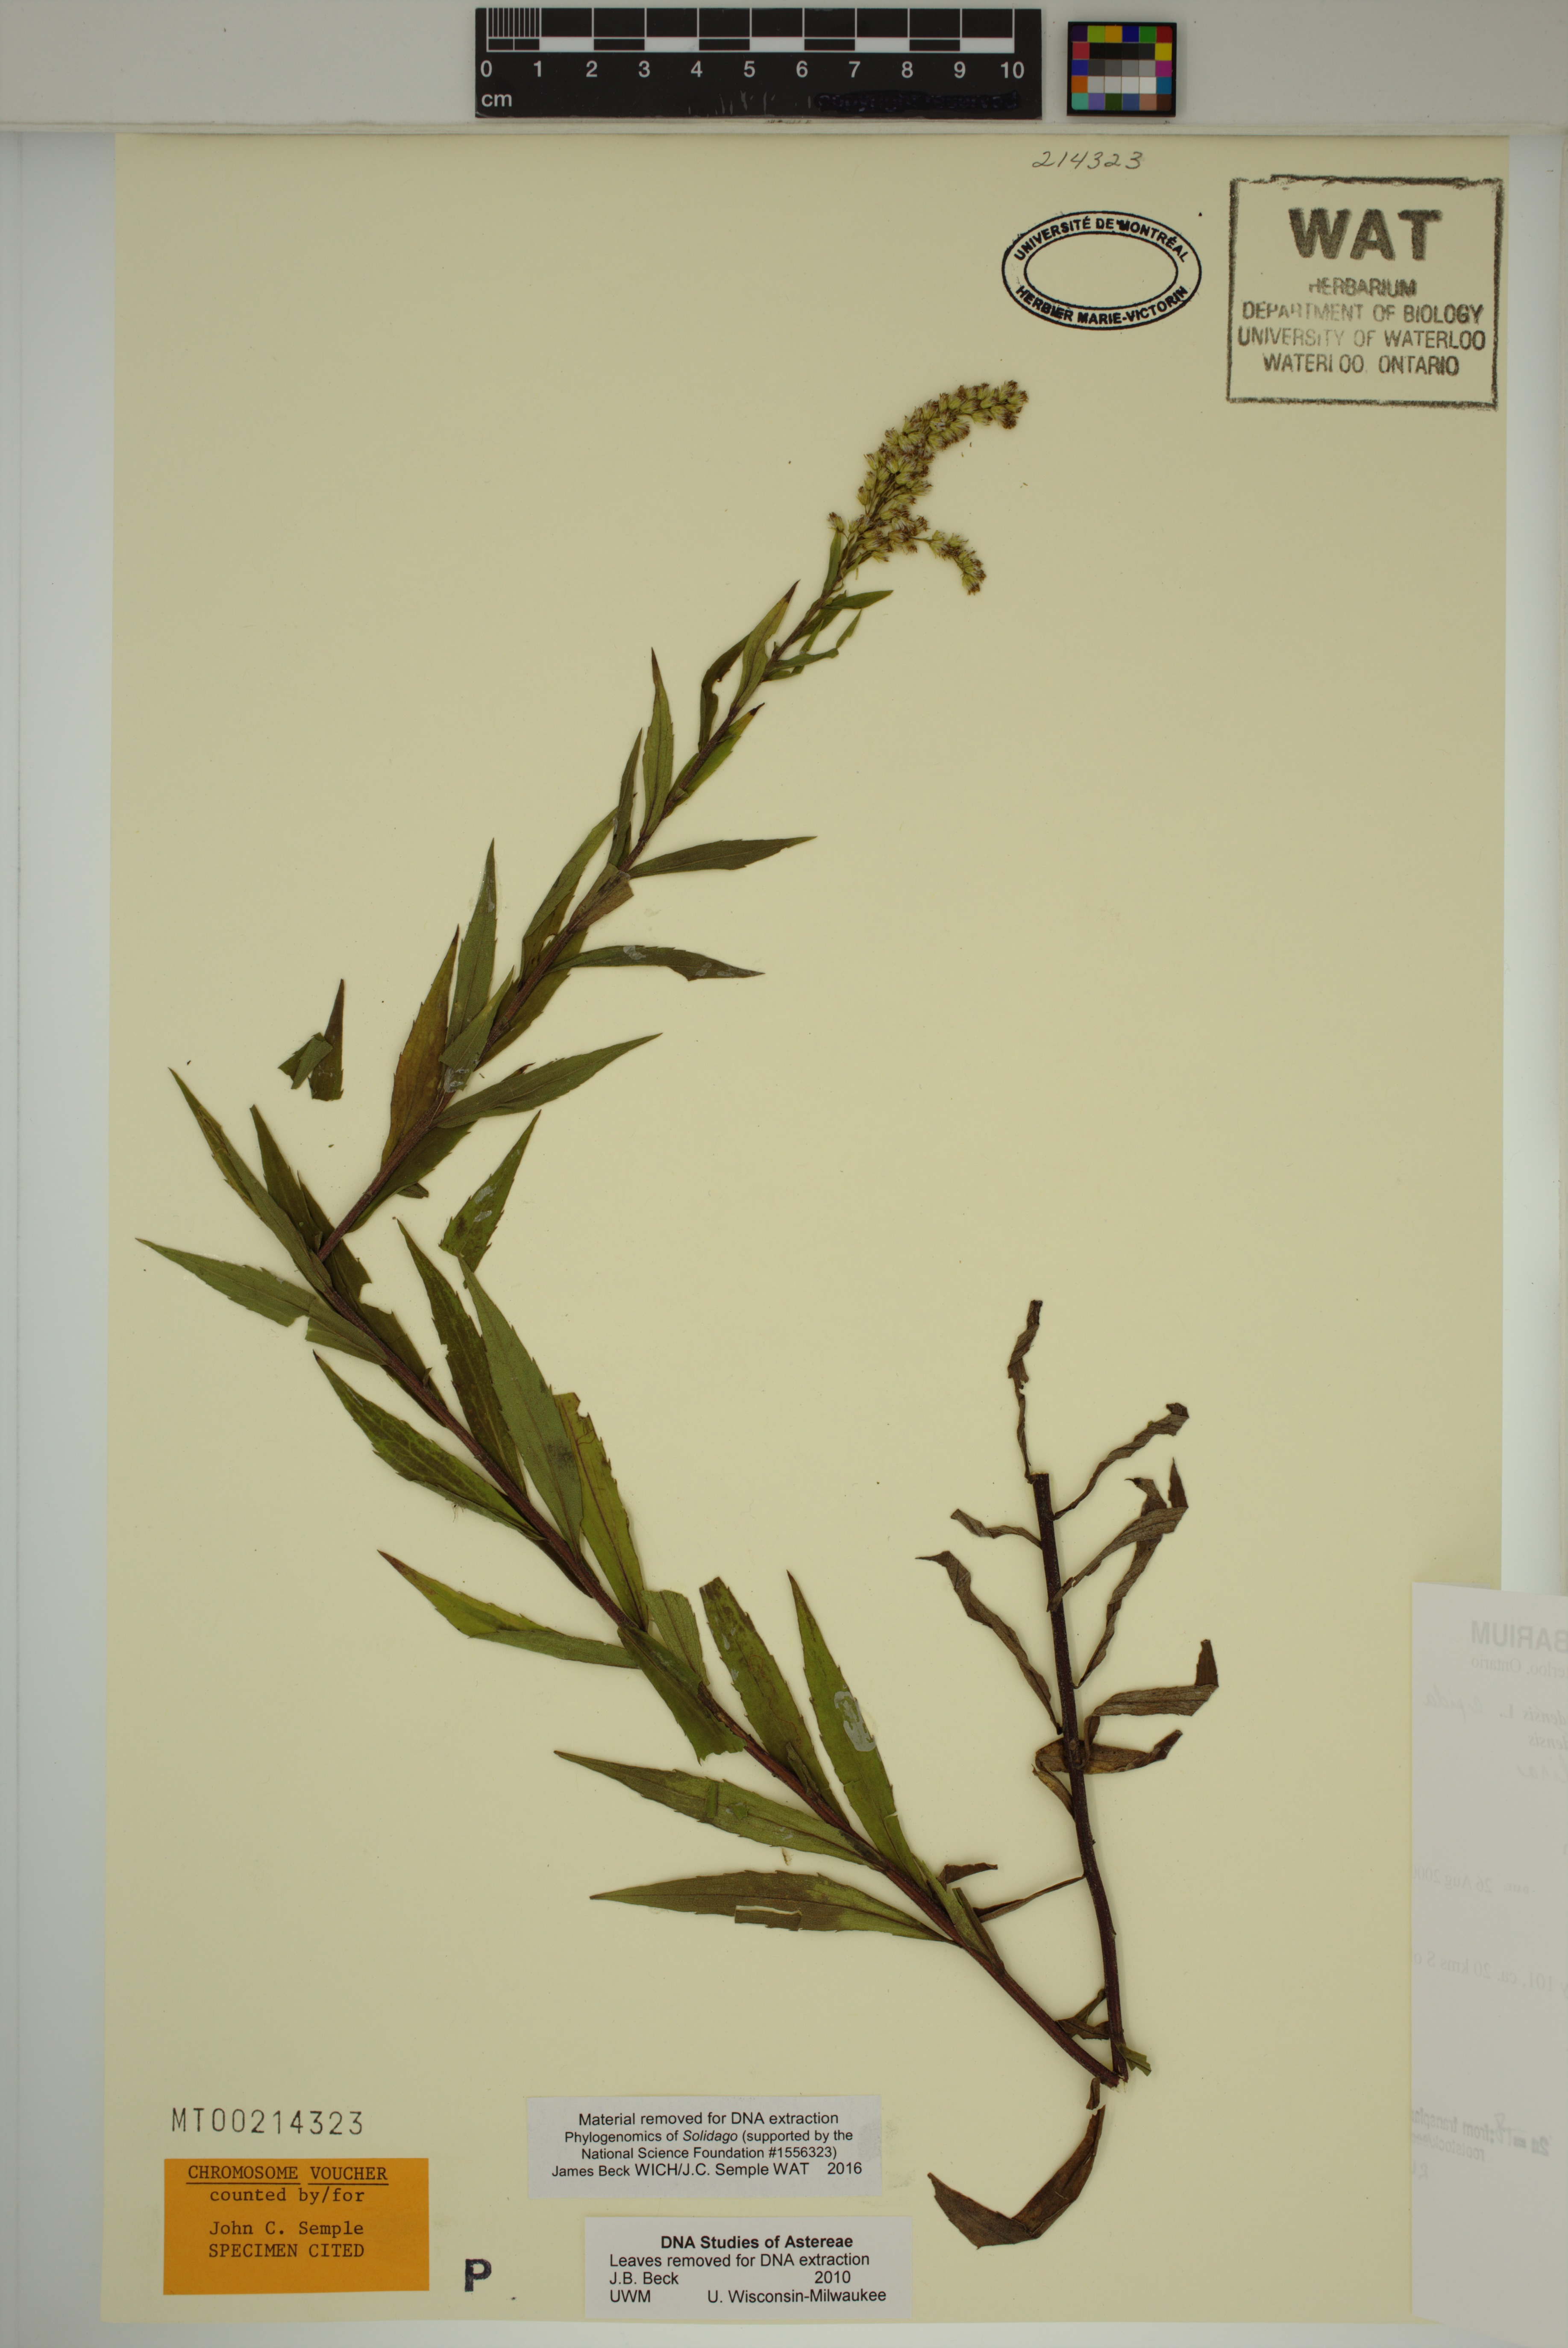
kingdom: Plantae
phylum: Tracheophyta
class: Magnoliopsida
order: Asterales
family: Asteraceae
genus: Solidago
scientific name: Solidago fallax
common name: Big-toothed canada goldenrod
